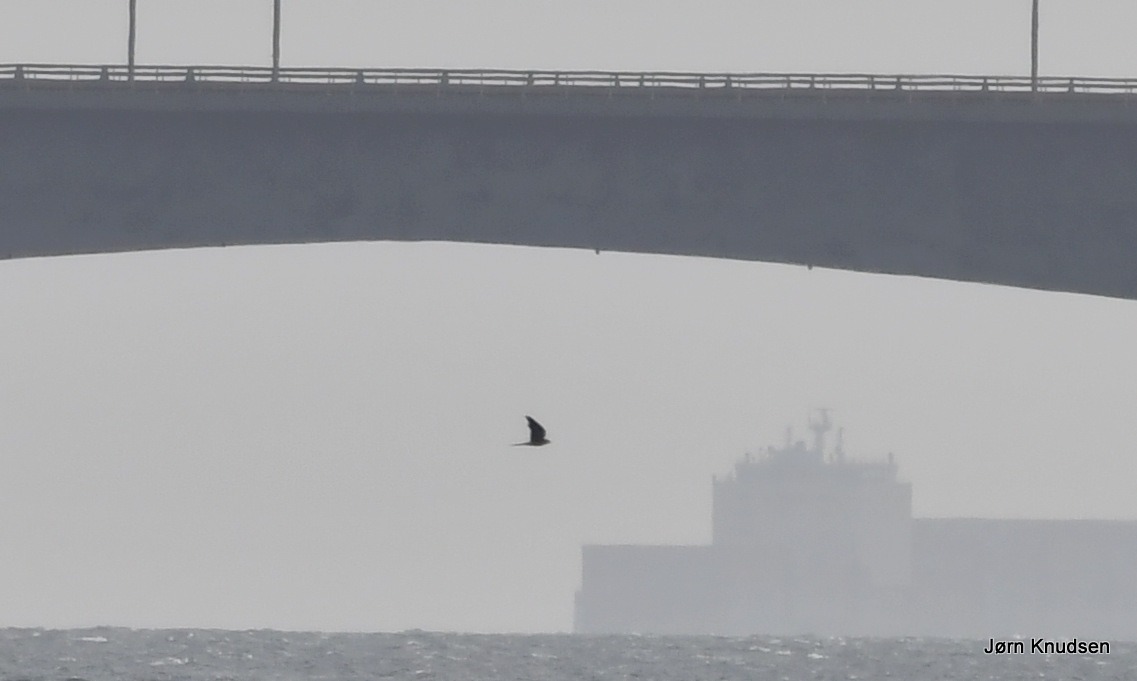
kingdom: Animalia
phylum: Chordata
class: Aves
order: Falconiformes
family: Falconidae
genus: Falco
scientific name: Falco tinnunculus
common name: Tårnfalk
